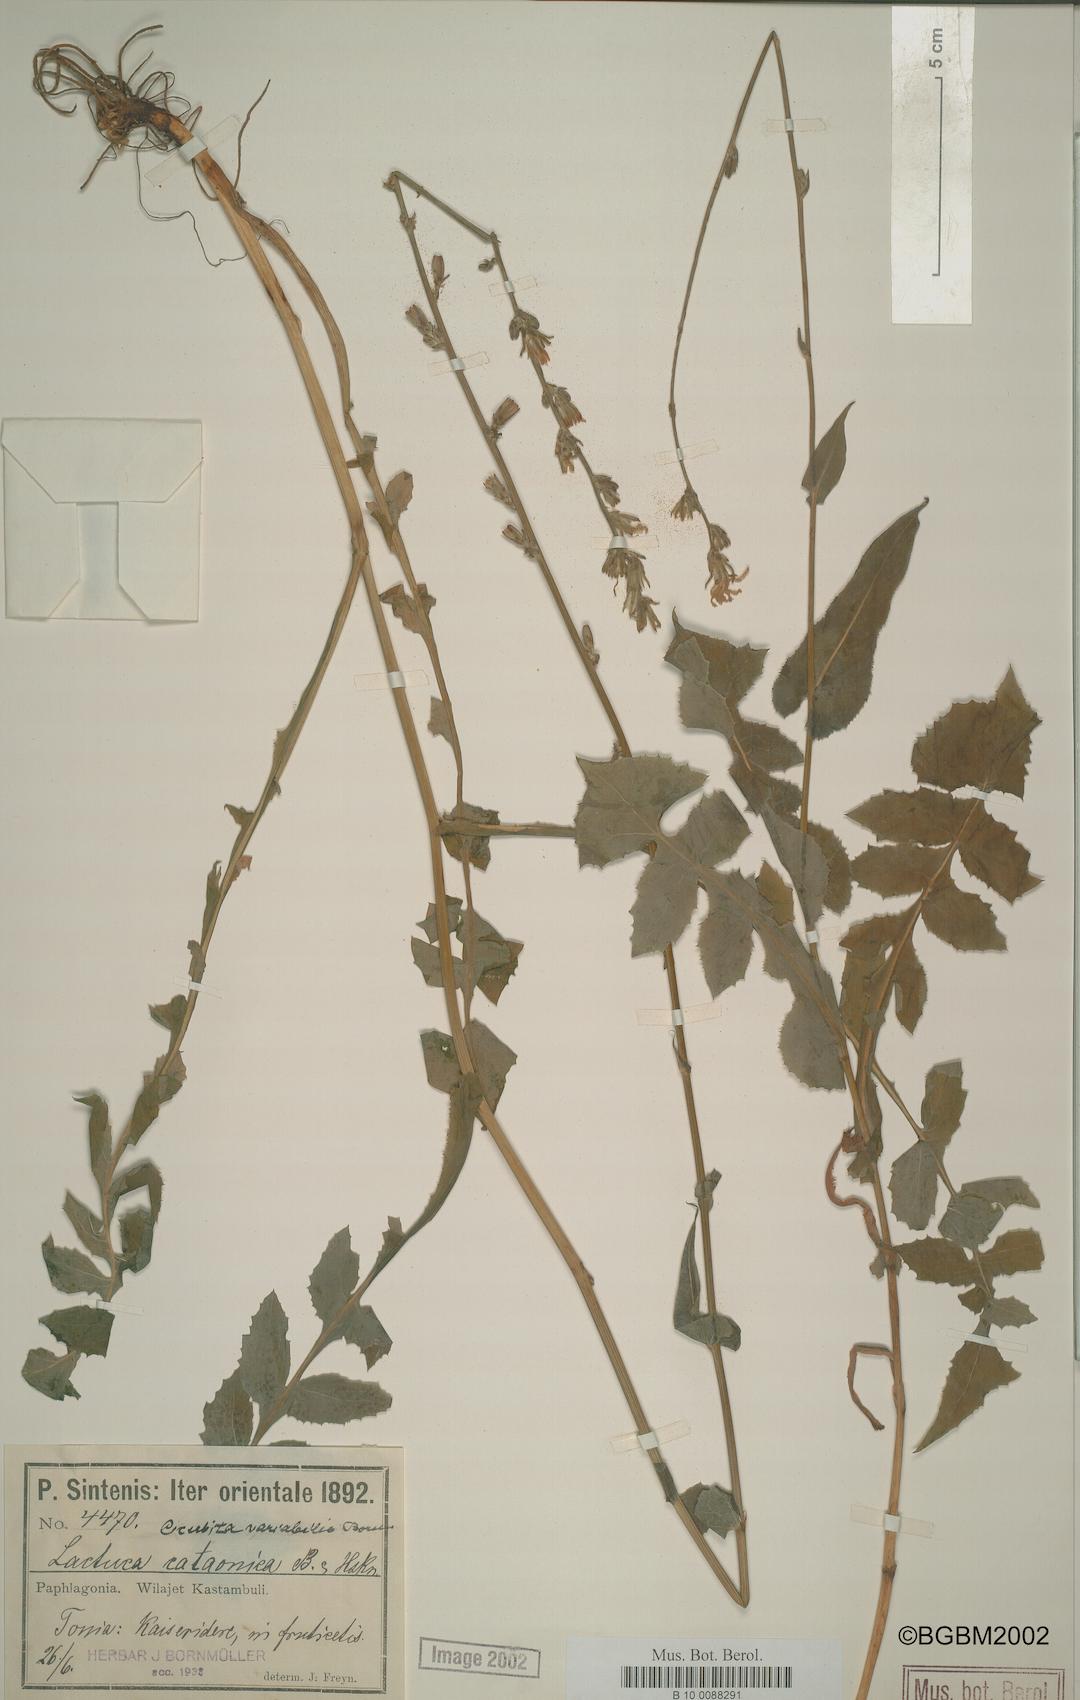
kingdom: Plantae
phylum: Tracheophyta
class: Magnoliopsida
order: Asterales
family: Asteraceae
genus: Lactuca
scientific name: Lactuca variabilis
